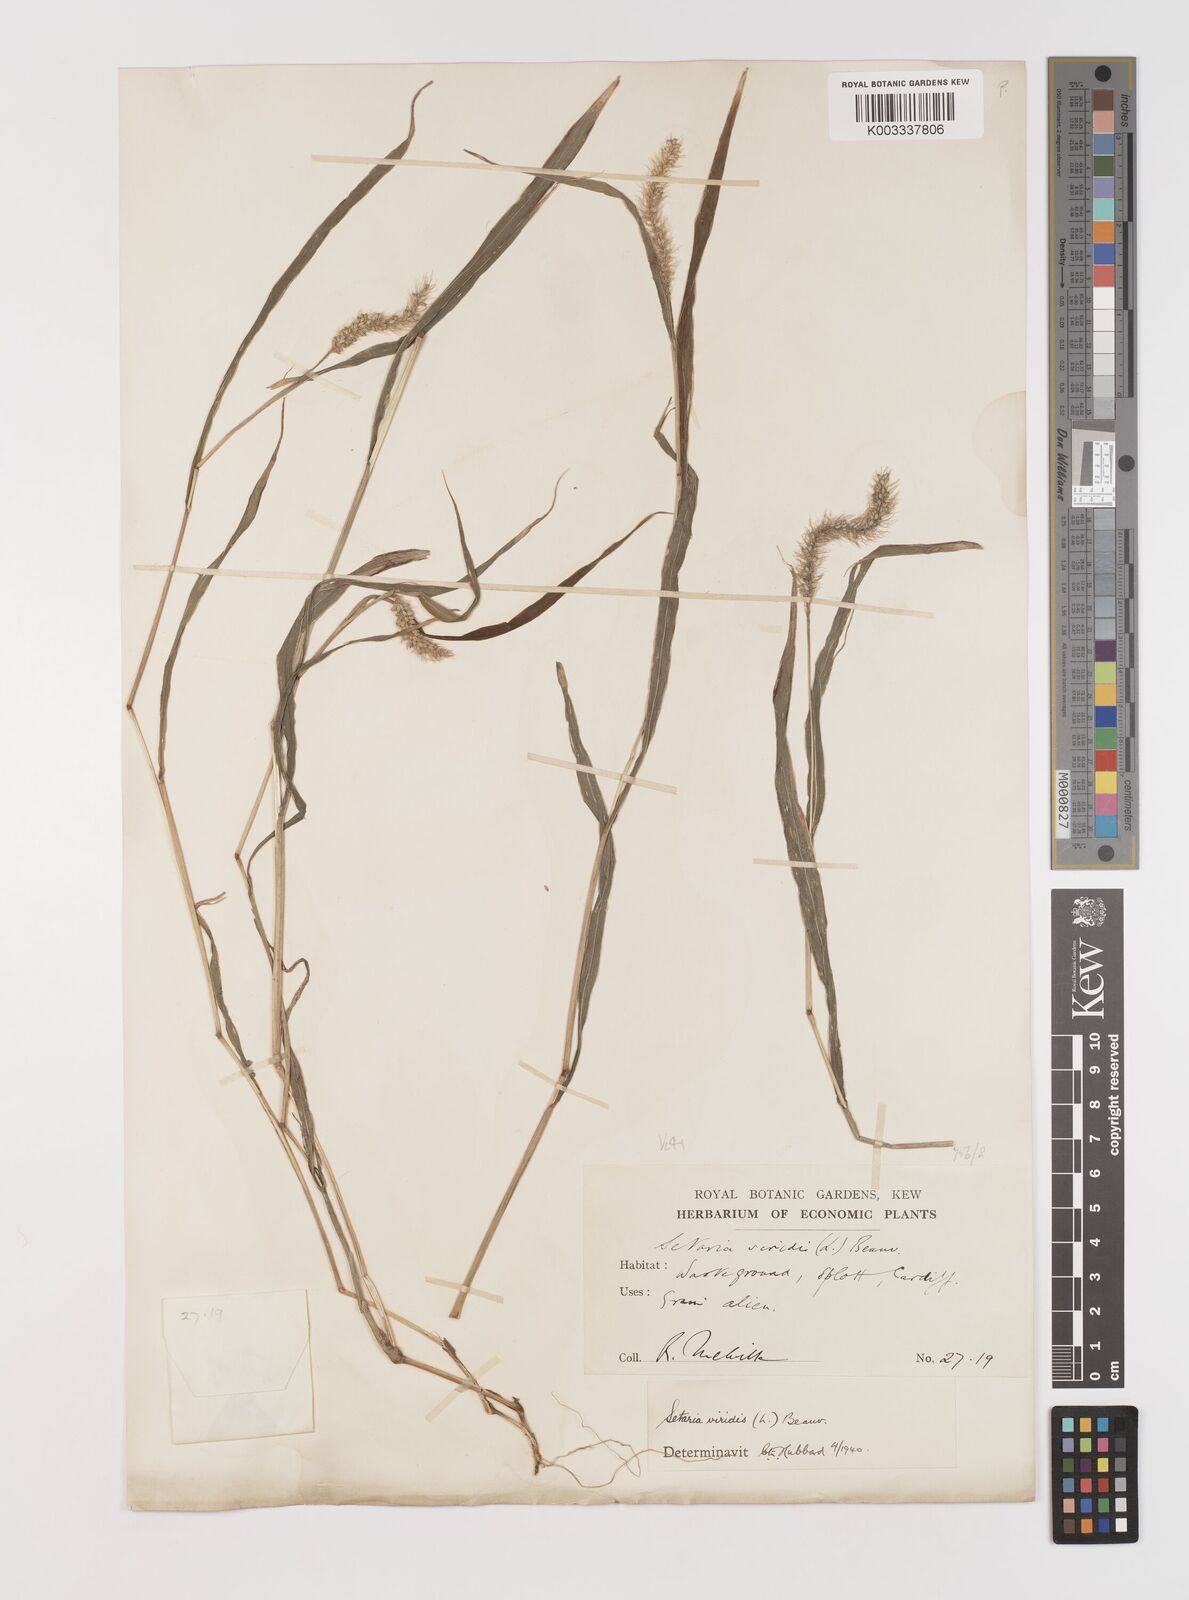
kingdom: Plantae
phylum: Tracheophyta
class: Liliopsida
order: Poales
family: Poaceae
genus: Setaria
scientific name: Setaria viridis
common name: Green bristlegrass
